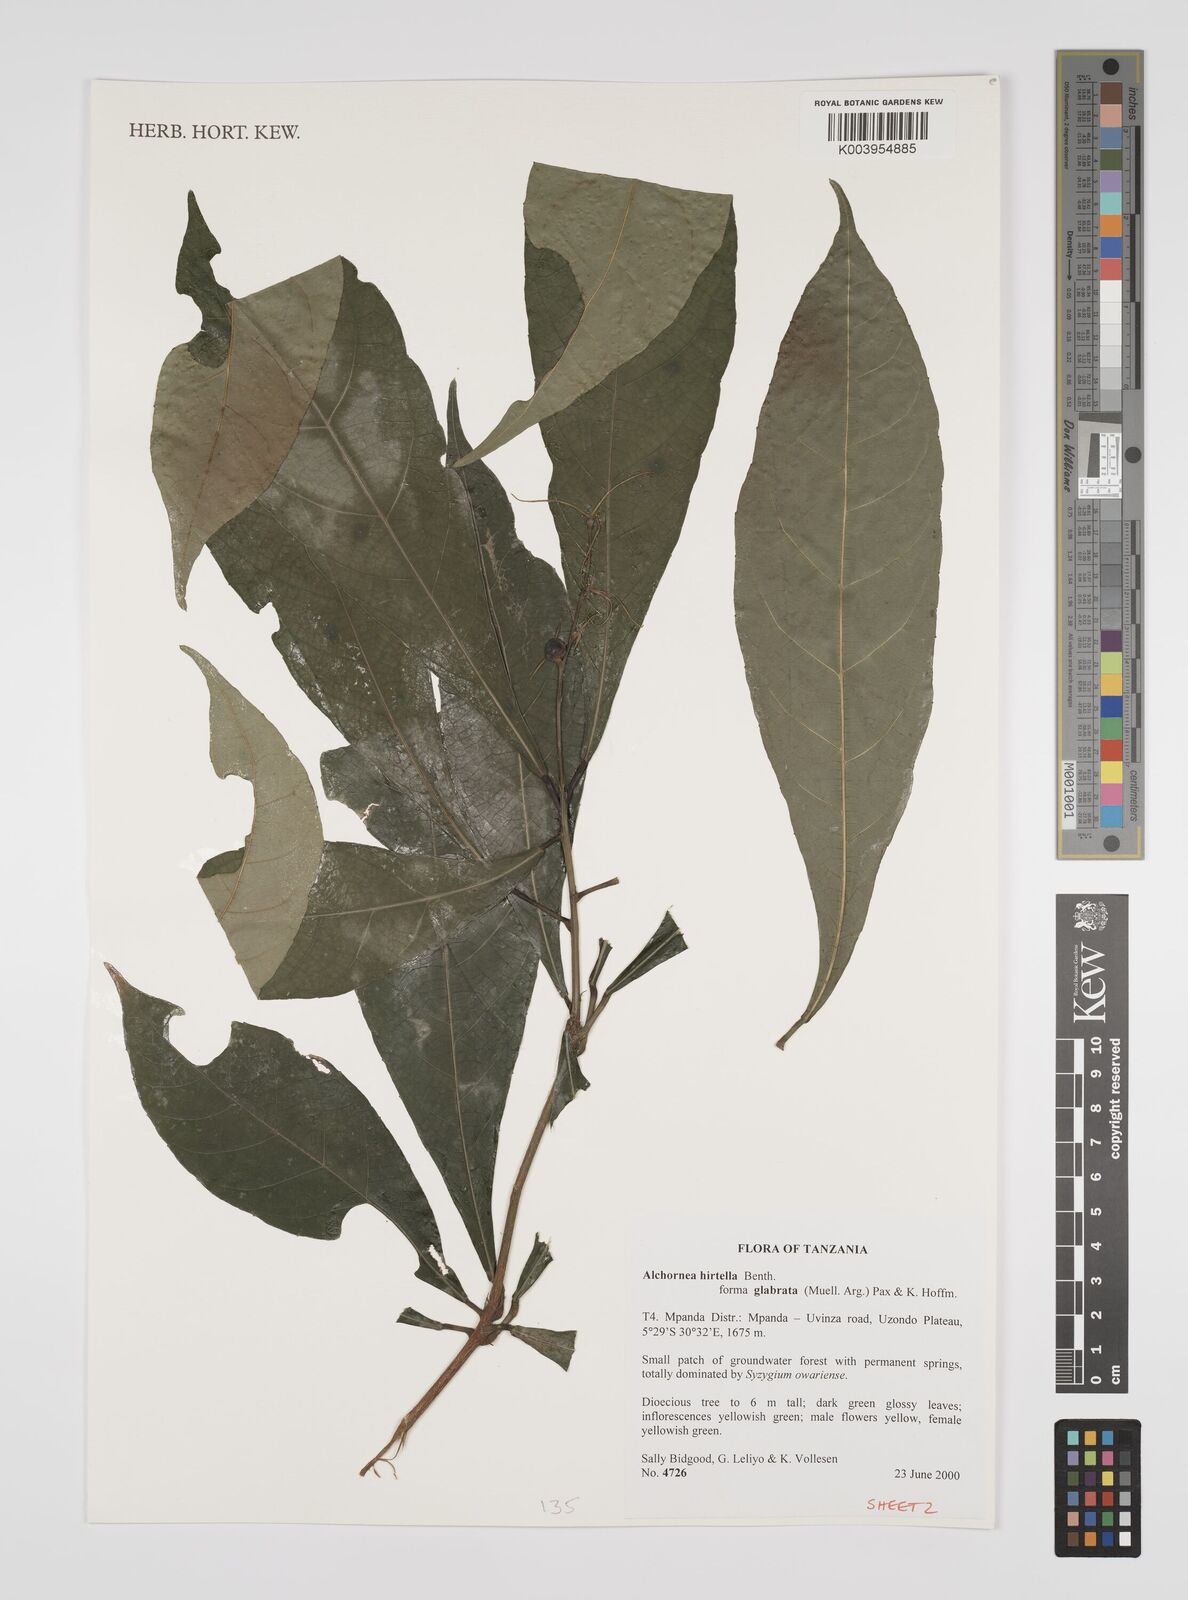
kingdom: Plantae
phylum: Tracheophyta
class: Magnoliopsida
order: Malpighiales
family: Euphorbiaceae
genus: Alchornea
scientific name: Alchornea hirtella
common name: Forest bead-string
